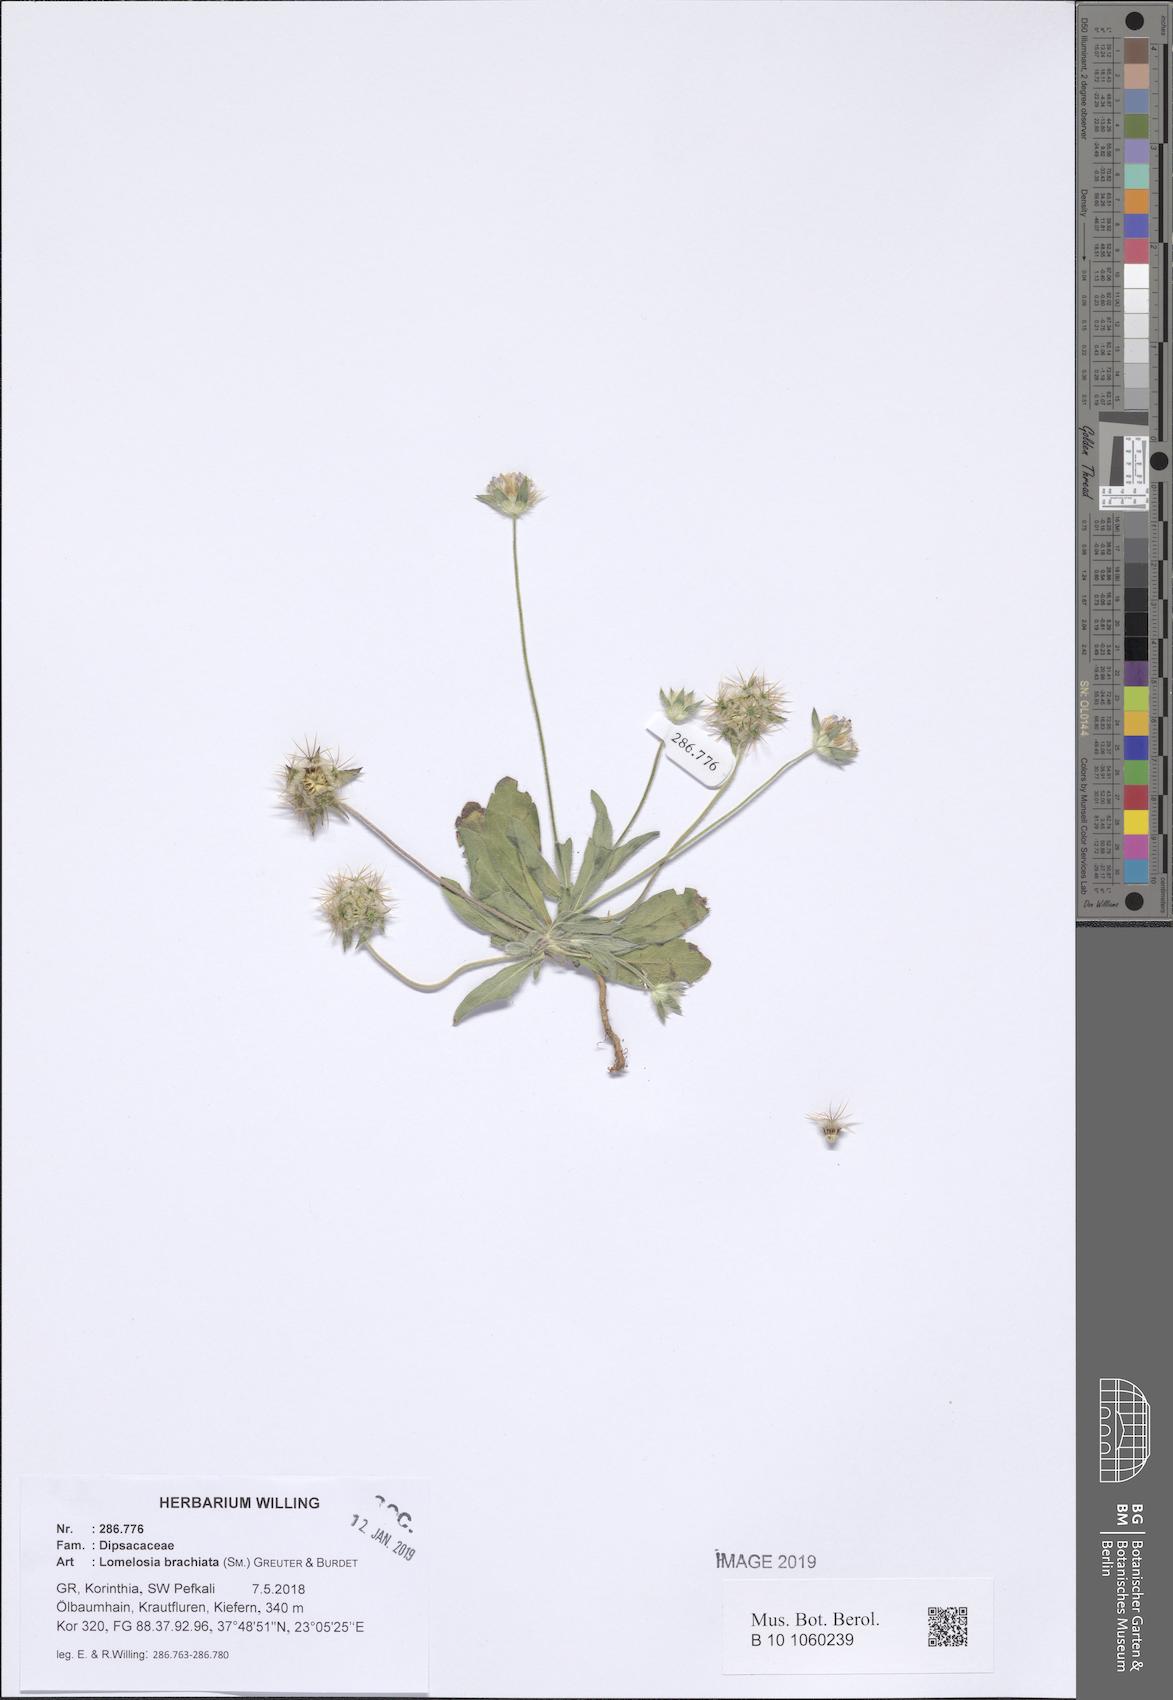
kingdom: Plantae
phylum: Tracheophyta
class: Magnoliopsida
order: Dipsacales
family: Caprifoliaceae
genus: Lomelosia
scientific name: Lomelosia brachiata
